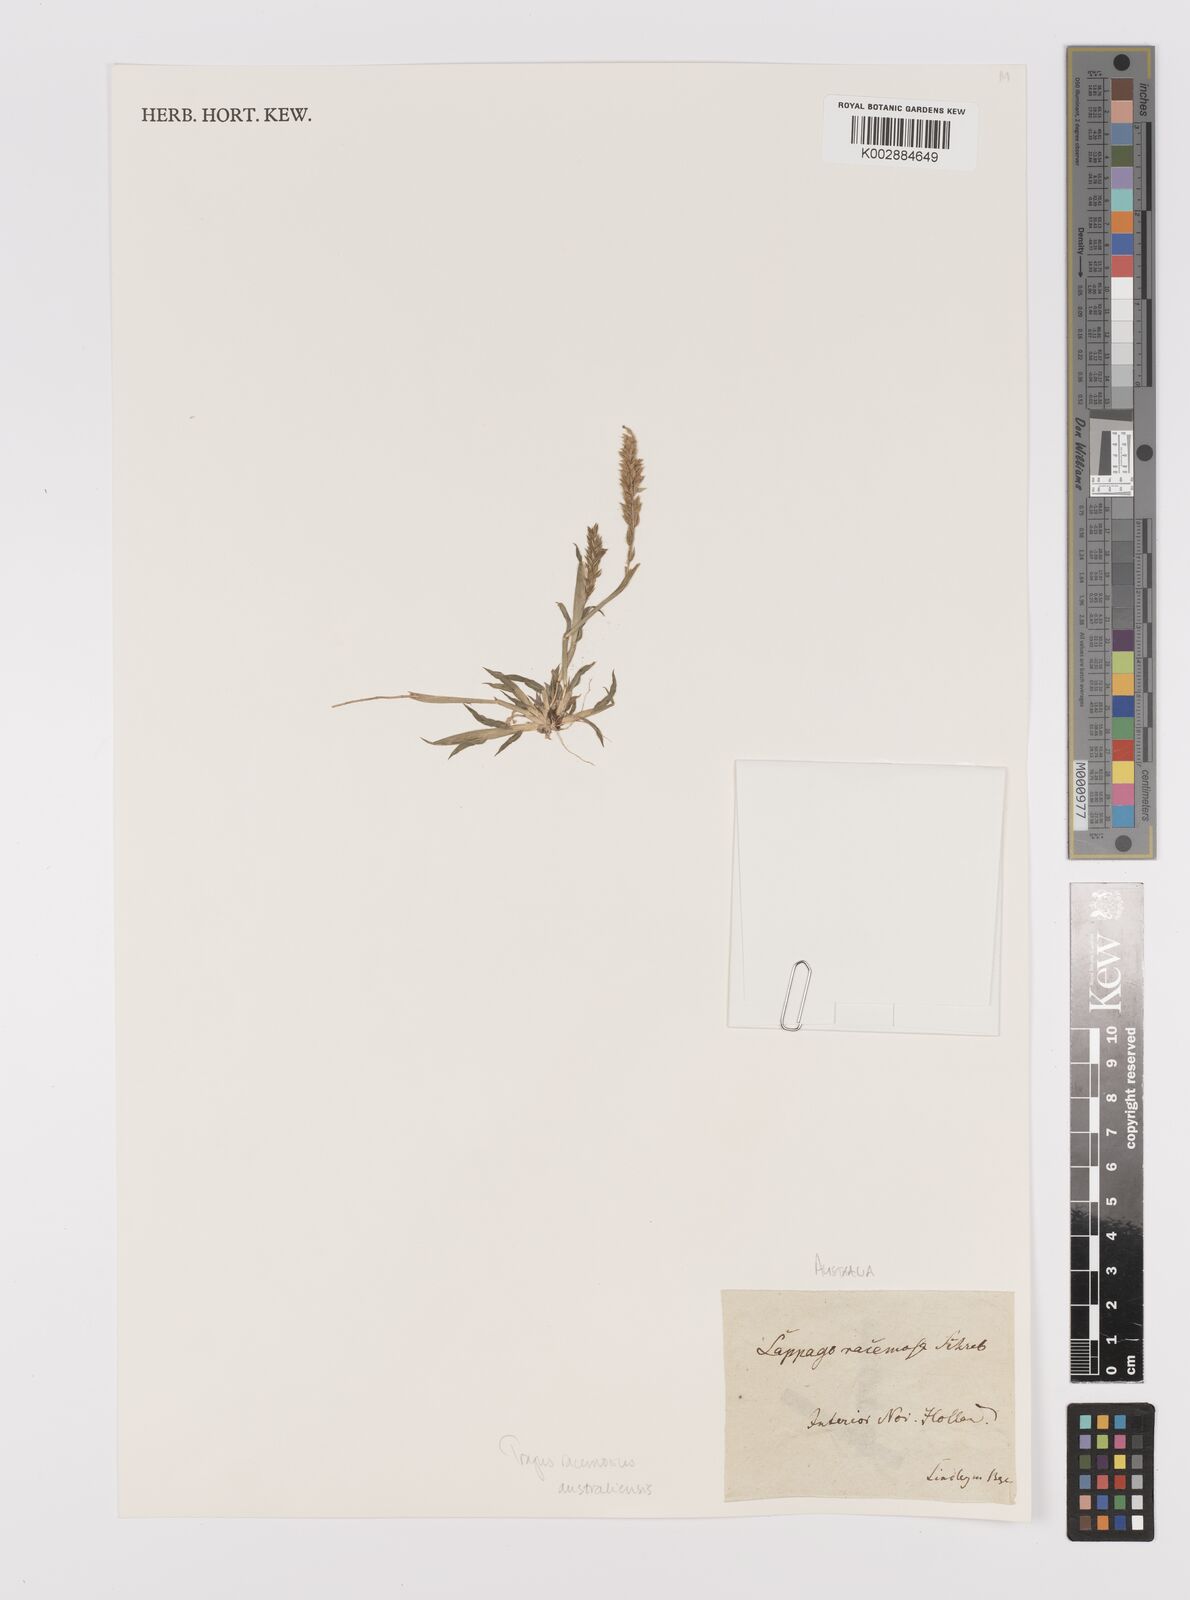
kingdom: Plantae
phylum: Tracheophyta
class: Liliopsida
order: Poales
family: Poaceae
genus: Tragus
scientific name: Tragus australianus
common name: Australian bur-grass
